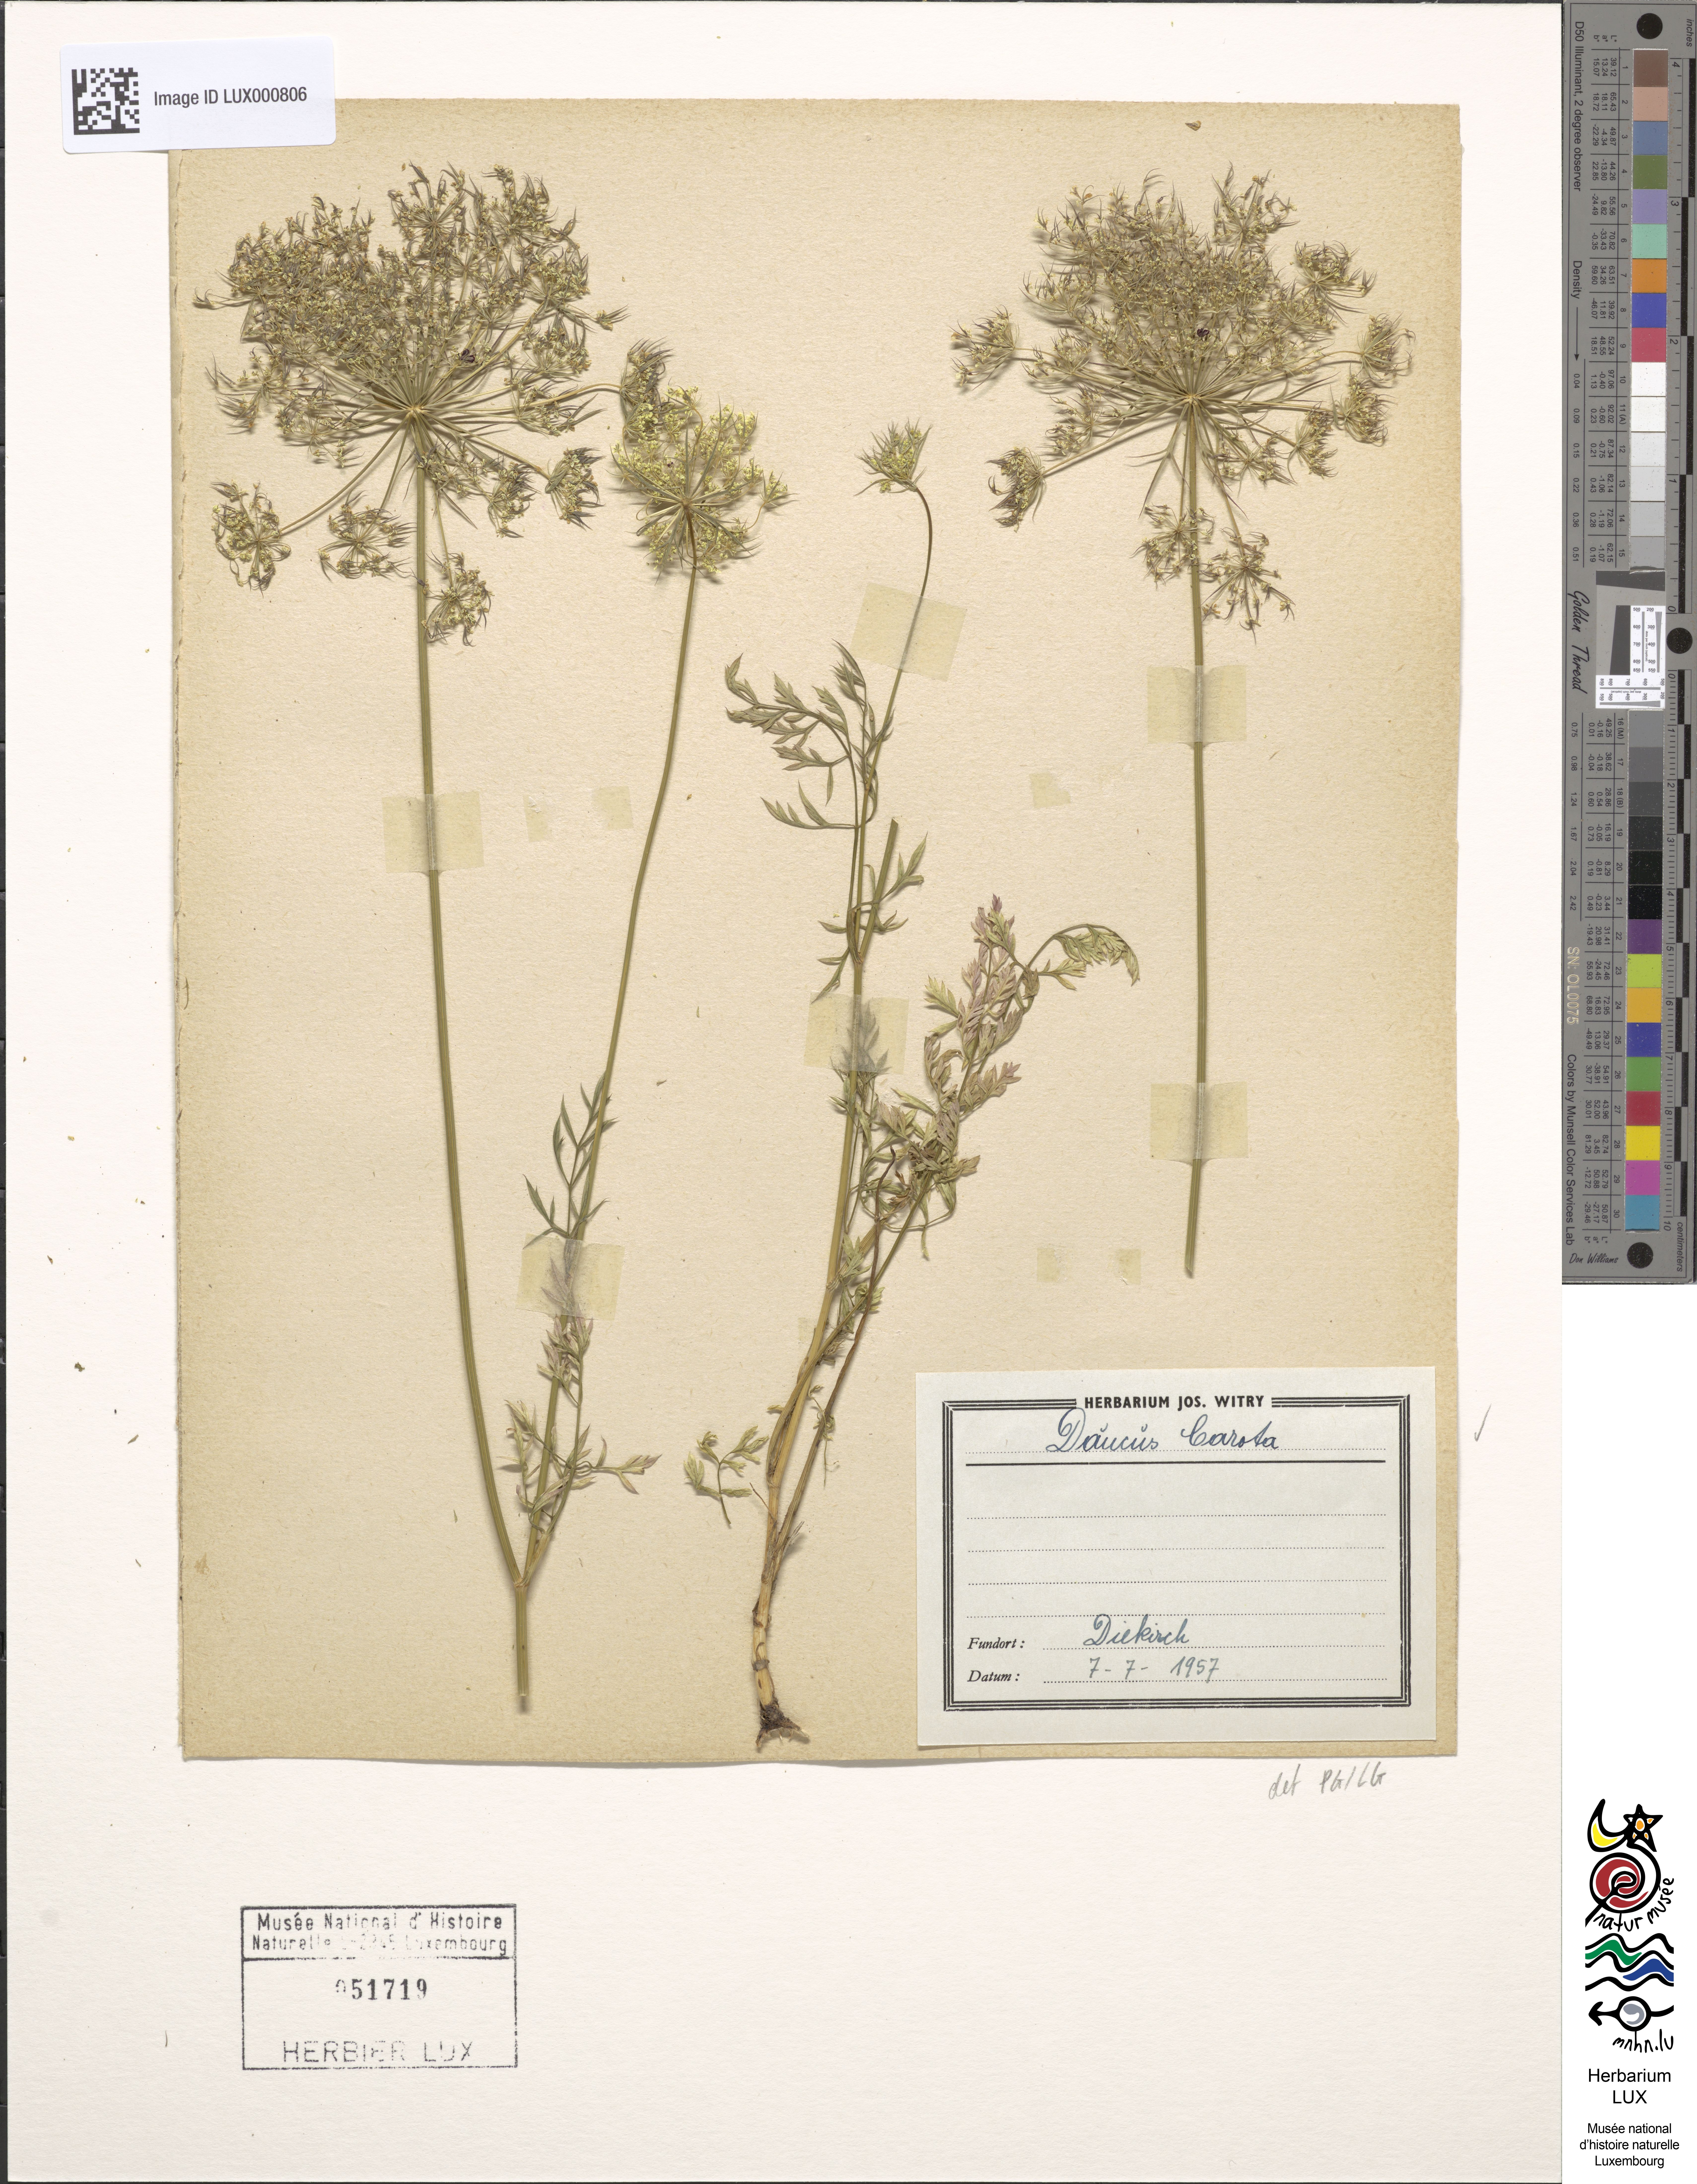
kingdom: Plantae
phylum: Tracheophyta
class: Magnoliopsida
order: Apiales
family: Apiaceae
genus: Daucus
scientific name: Daucus carota
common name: Wild carrot
